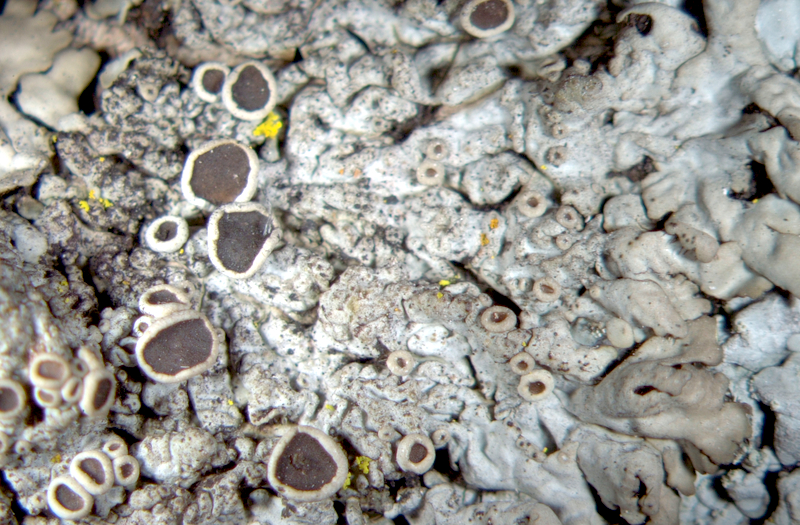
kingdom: Fungi
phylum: Ascomycota
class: Lecanoromycetes
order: Caliciales
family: Physciaceae
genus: Phaeophyscia
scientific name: Phaeophyscia confusa
